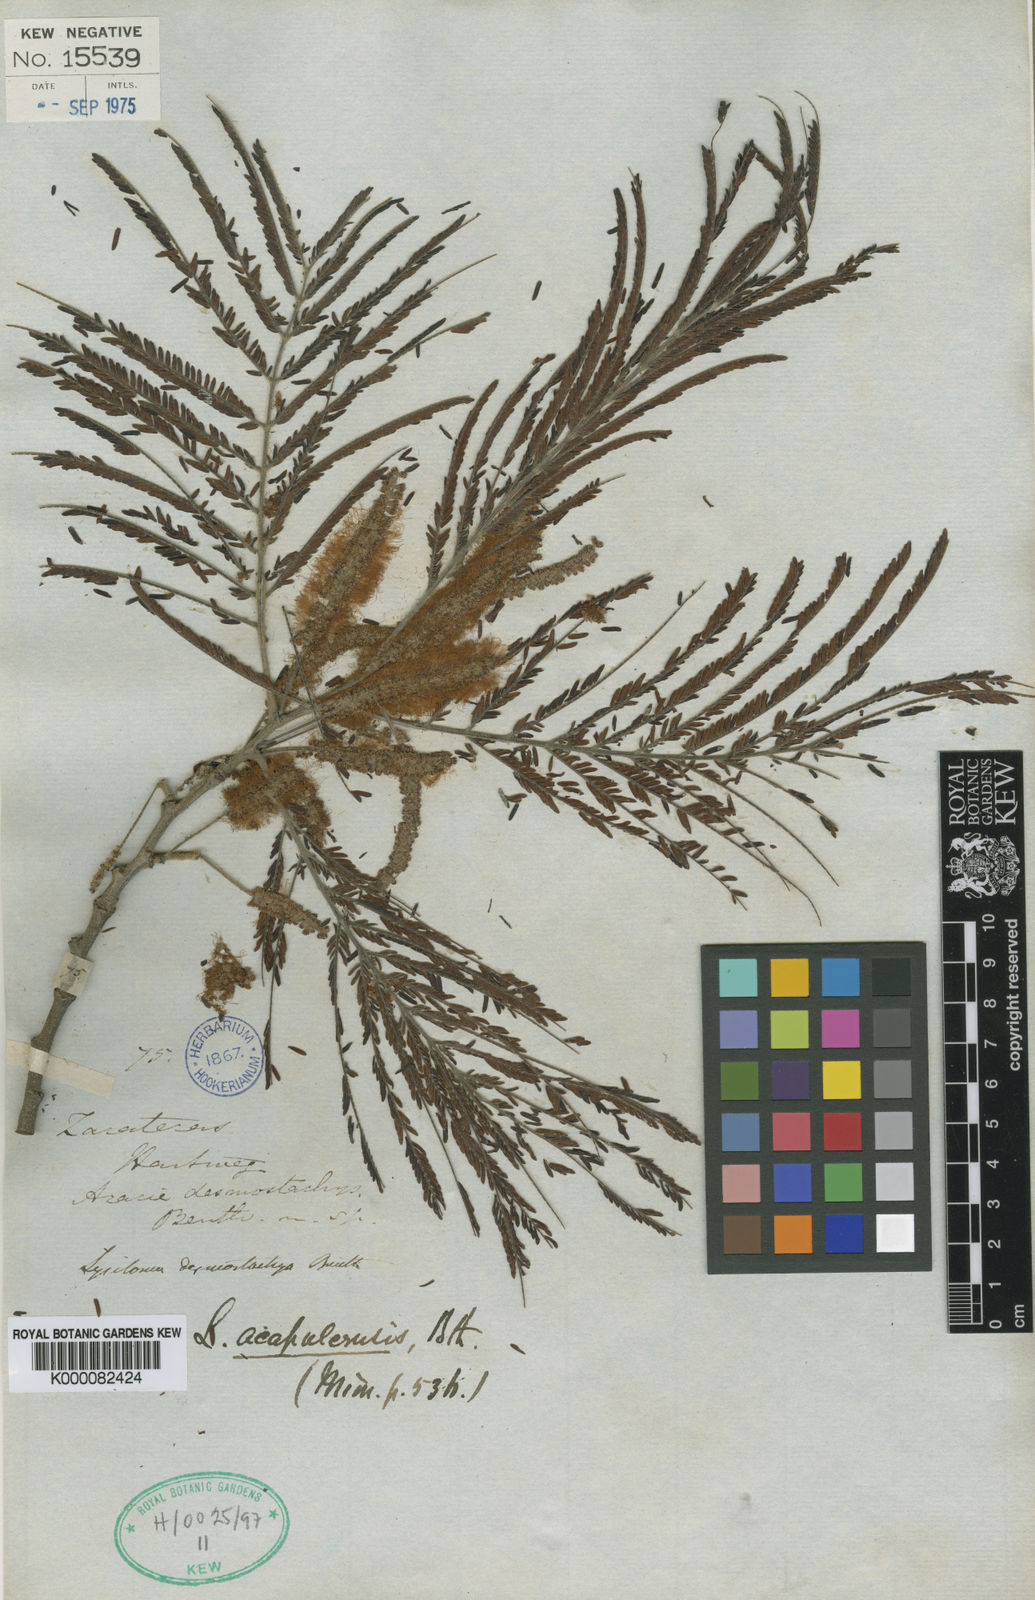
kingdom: Plantae
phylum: Tracheophyta
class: Magnoliopsida
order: Fabales
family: Fabaceae
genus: Lysiloma
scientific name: Lysiloma acapulcense
